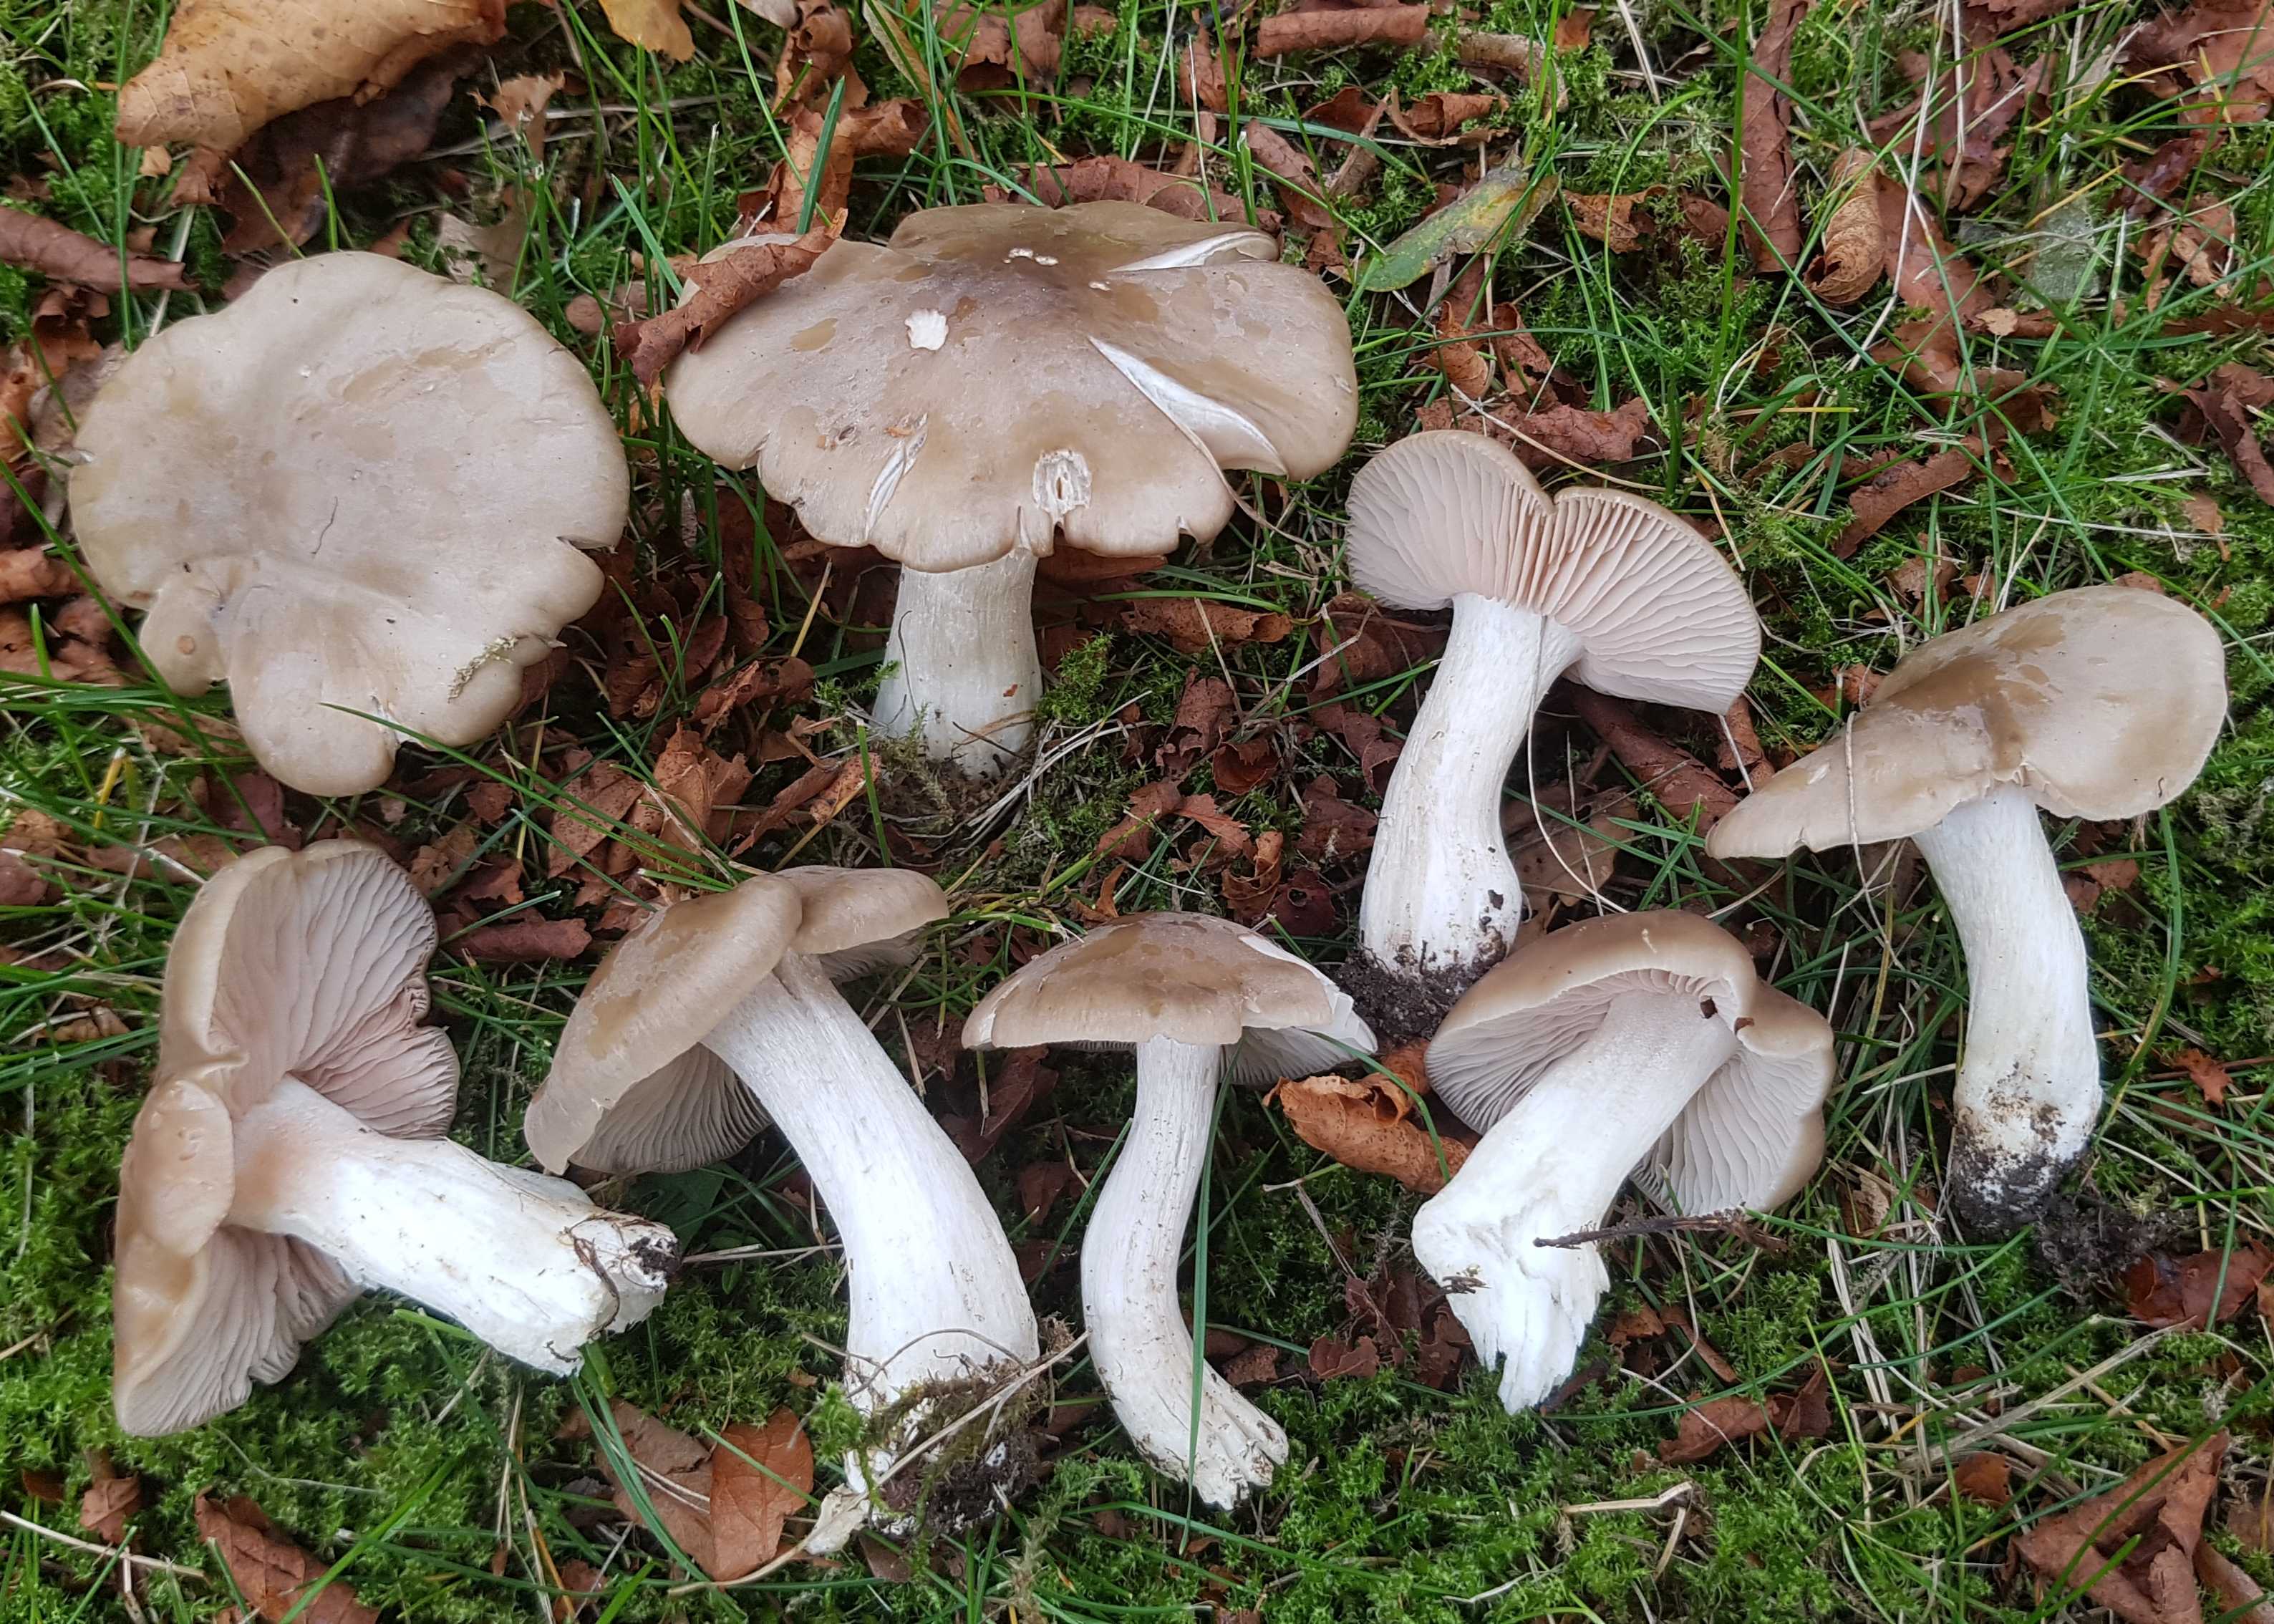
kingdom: Fungi
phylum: Basidiomycota
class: Agaricomycetes
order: Agaricales
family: Entolomataceae
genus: Entoloma
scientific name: Entoloma lividoalbum
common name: lysstokket rødblad
